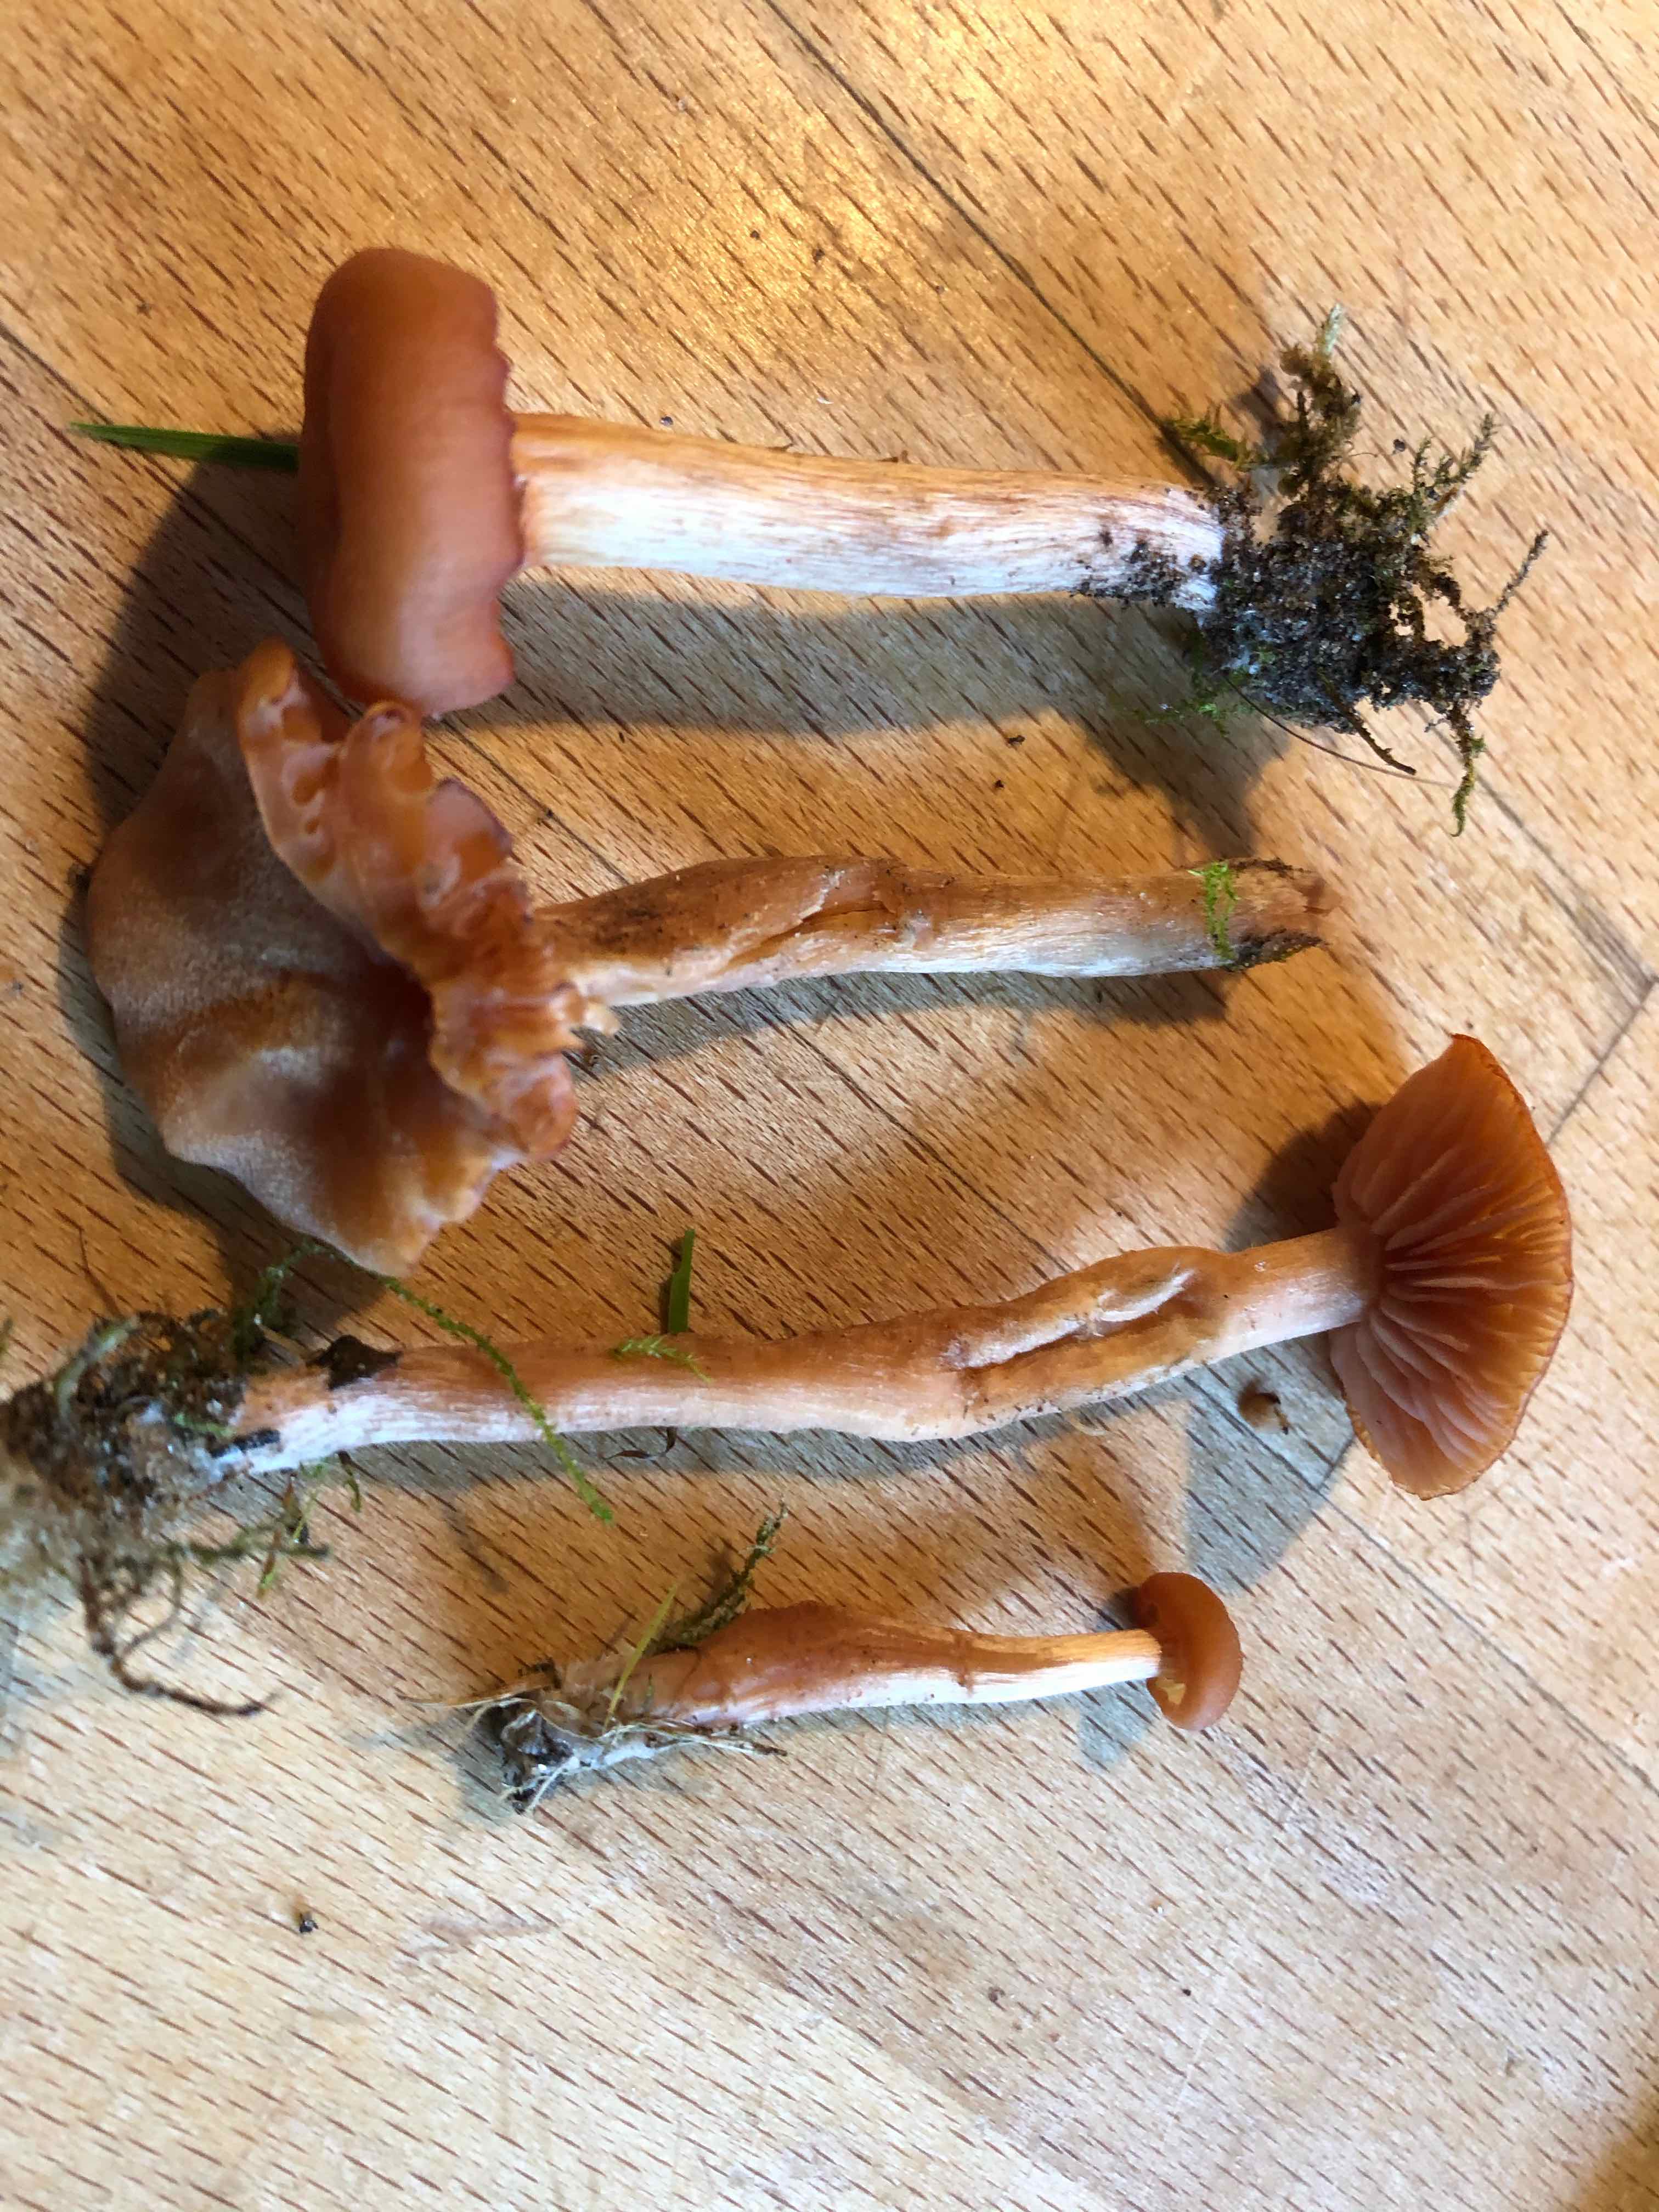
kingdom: Fungi
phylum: Basidiomycota
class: Agaricomycetes
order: Agaricales
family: Hydnangiaceae
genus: Laccaria
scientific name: Laccaria
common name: ametysthat
